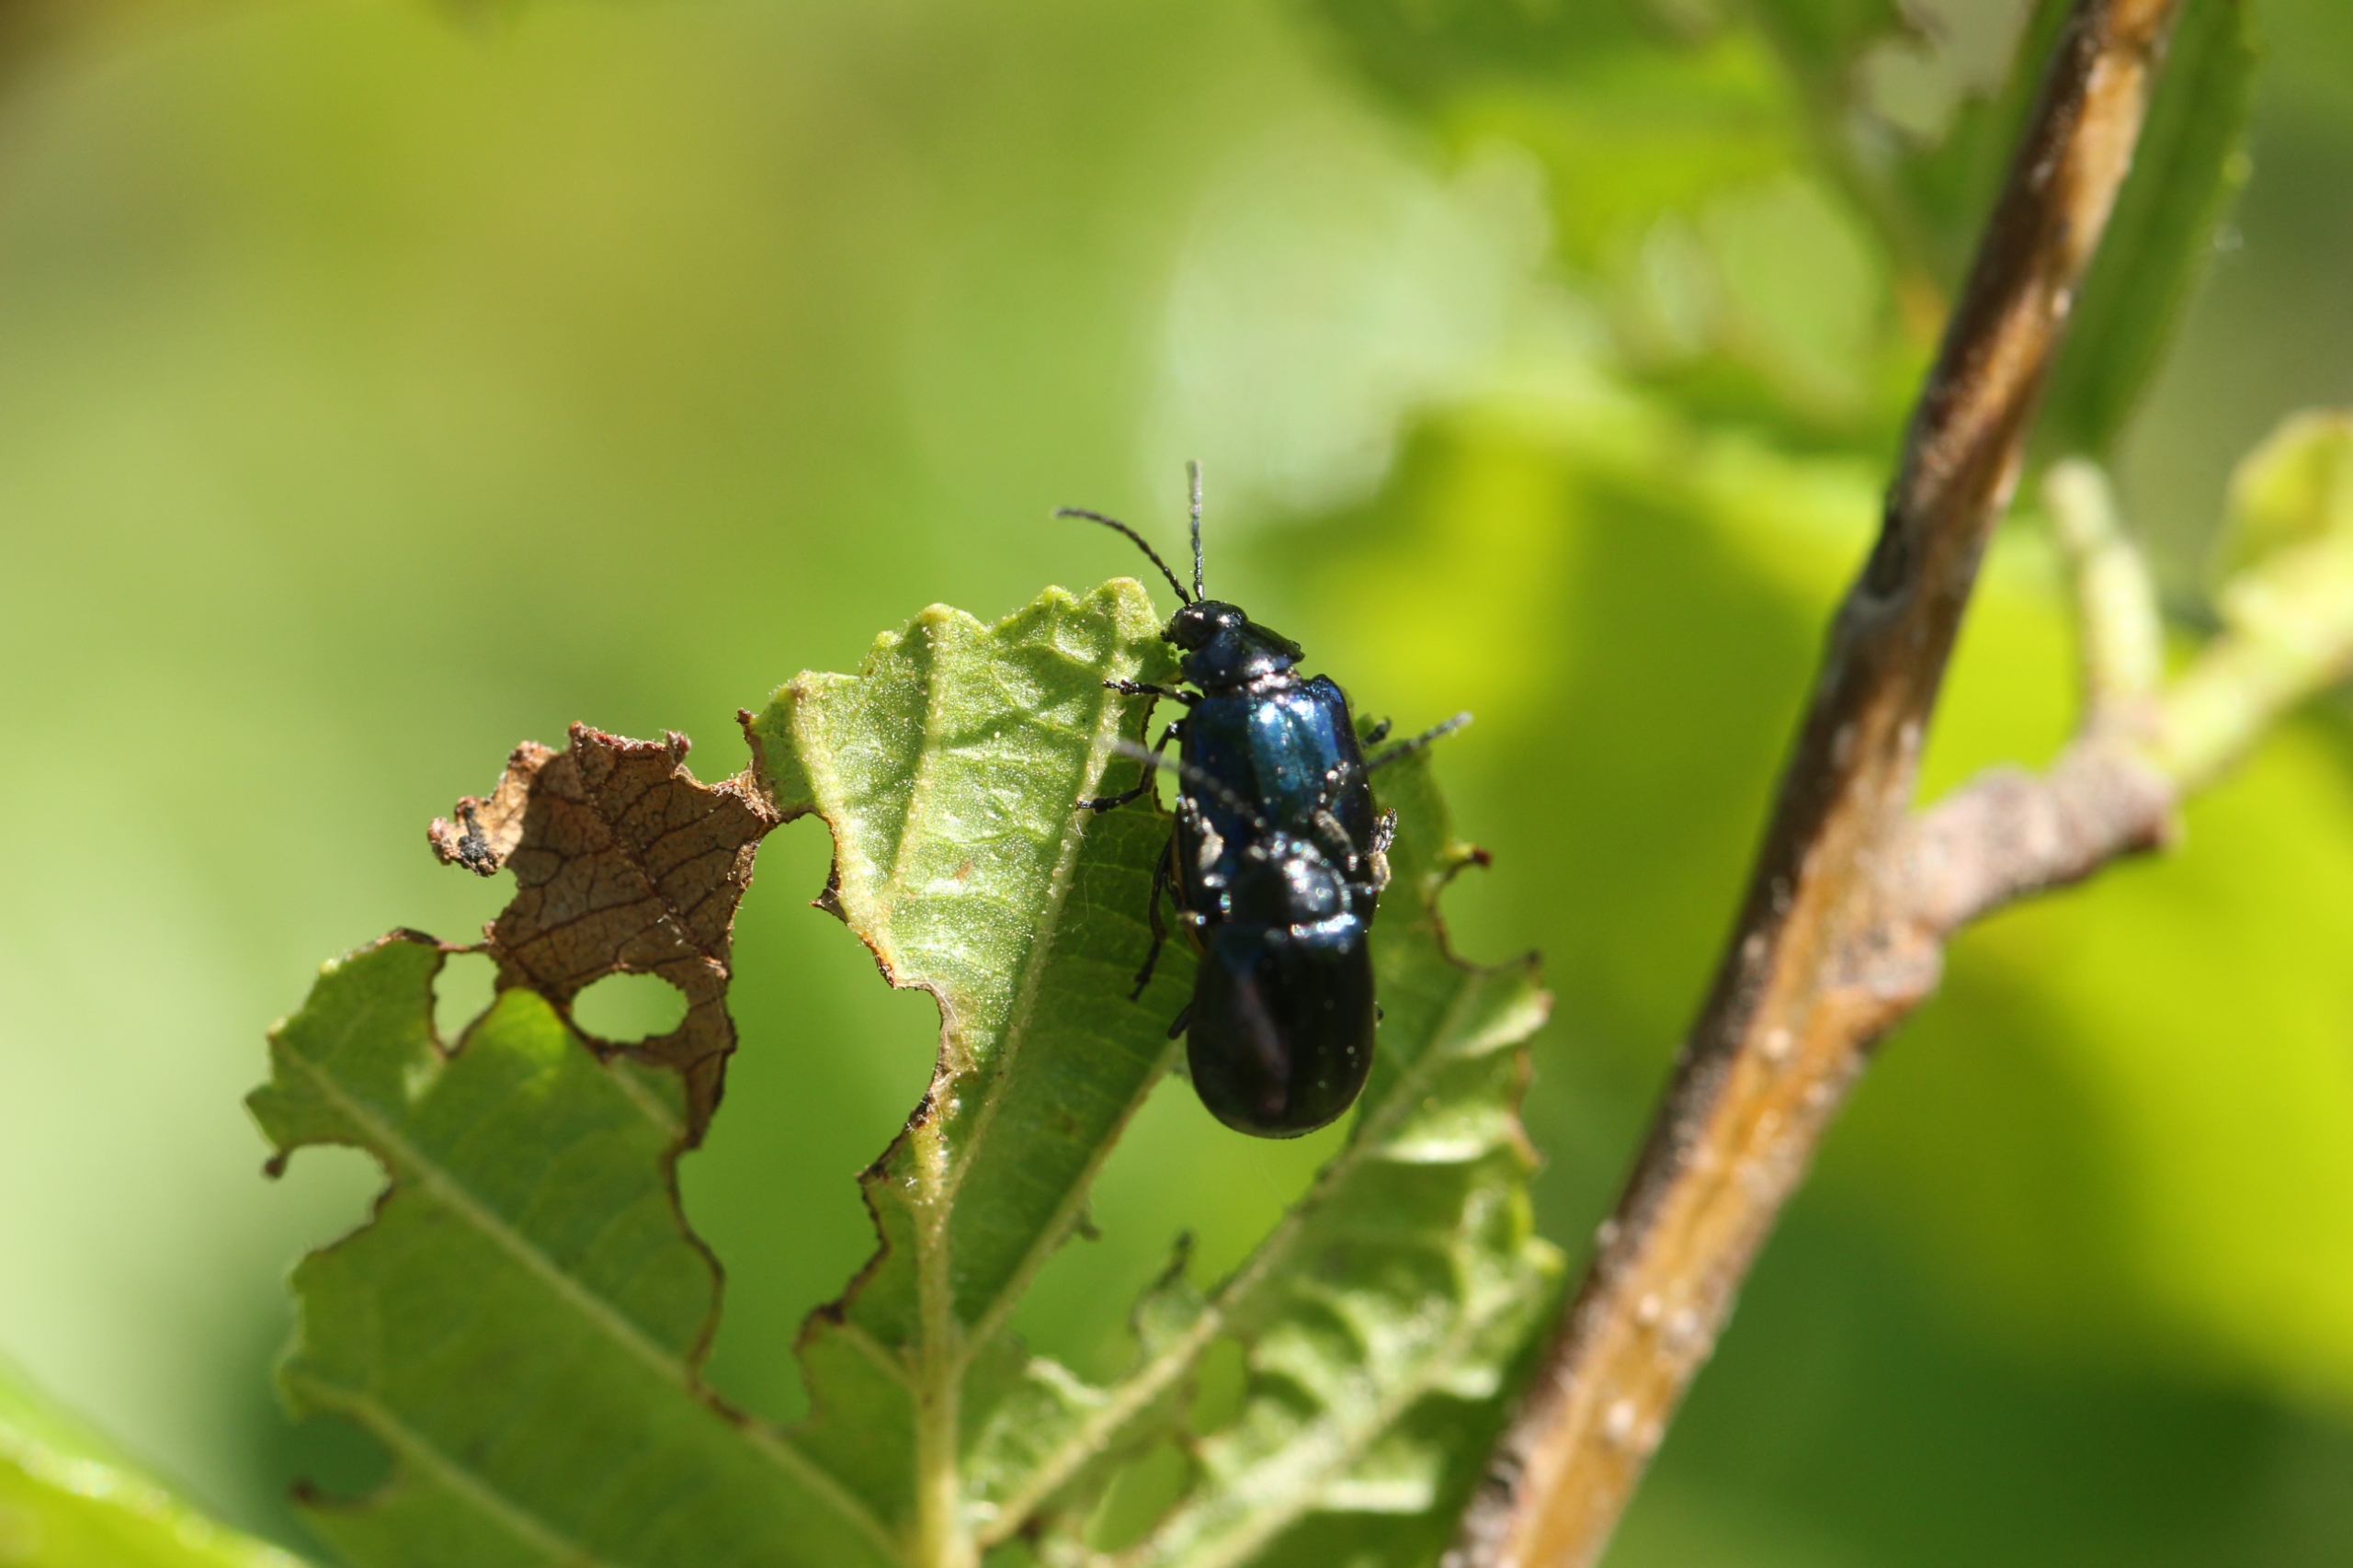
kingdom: Animalia
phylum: Arthropoda
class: Insecta
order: Coleoptera
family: Chrysomelidae
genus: Agelastica
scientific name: Agelastica alni
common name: Ellebladbille
